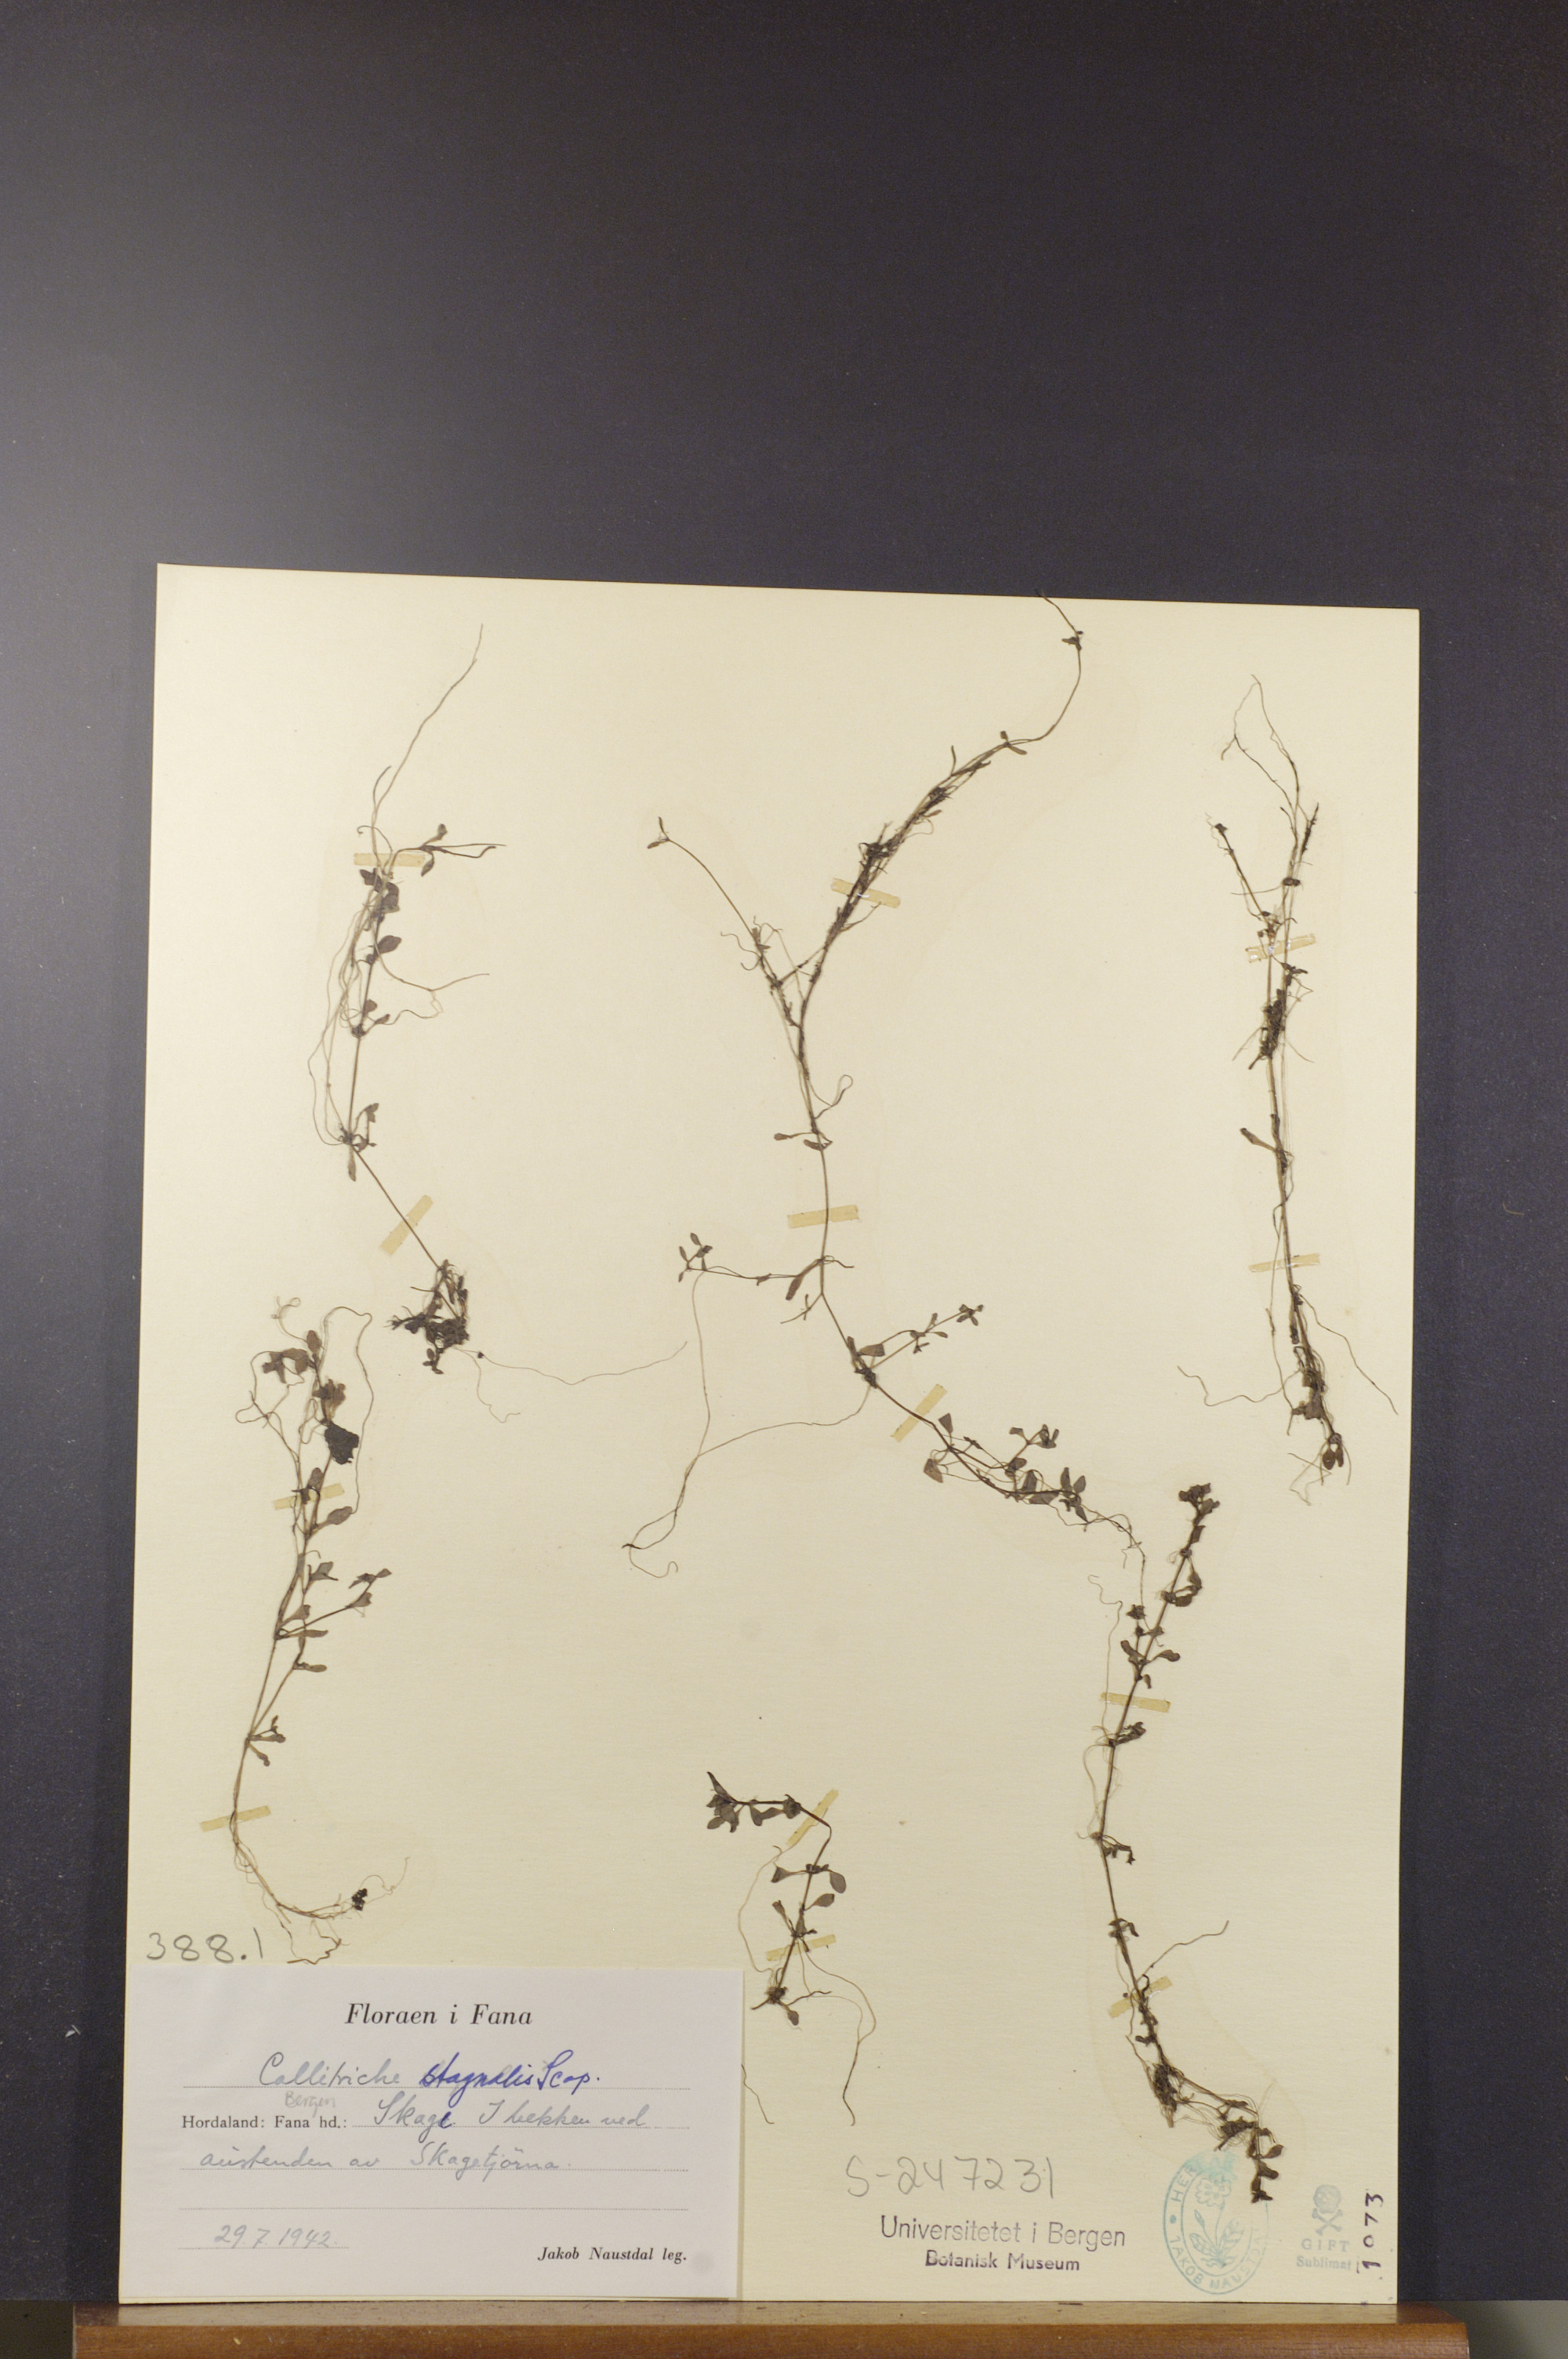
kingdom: Plantae
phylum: Tracheophyta
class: Magnoliopsida
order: Lamiales
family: Plantaginaceae
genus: Callitriche
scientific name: Callitriche stagnalis
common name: Common water-starwort
